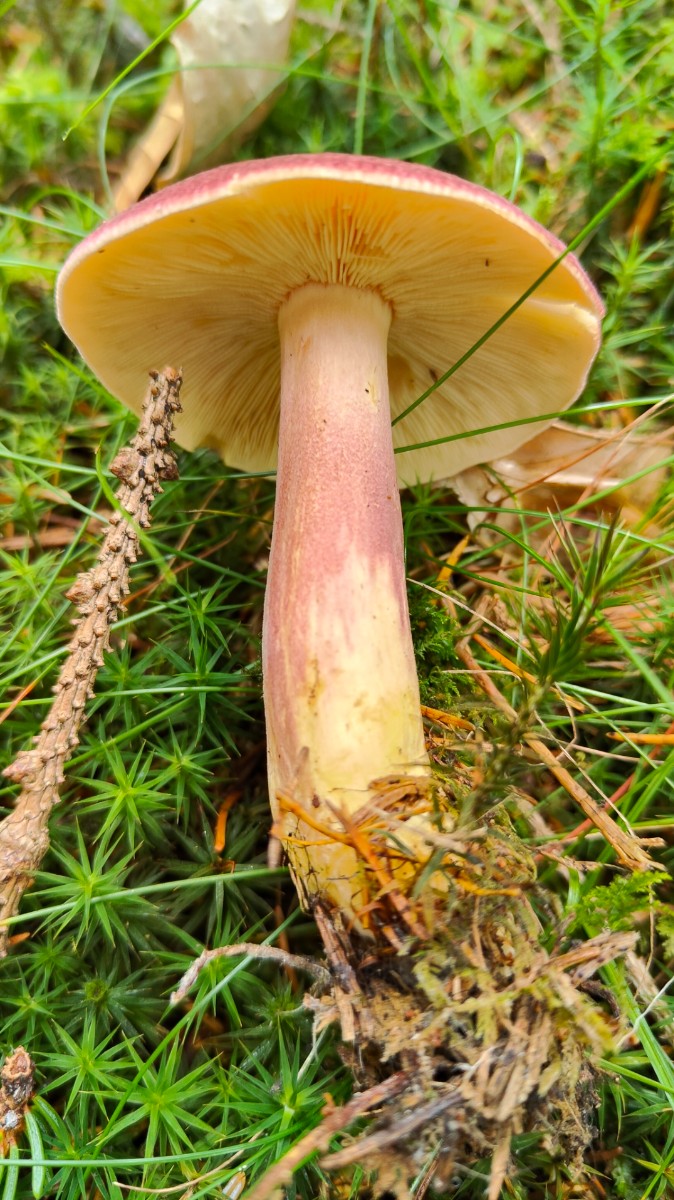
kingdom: Fungi
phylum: Basidiomycota
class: Agaricomycetes
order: Agaricales
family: Tricholomataceae
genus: Tricholomopsis
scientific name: Tricholomopsis rutilans
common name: purpur-væbnerhat
